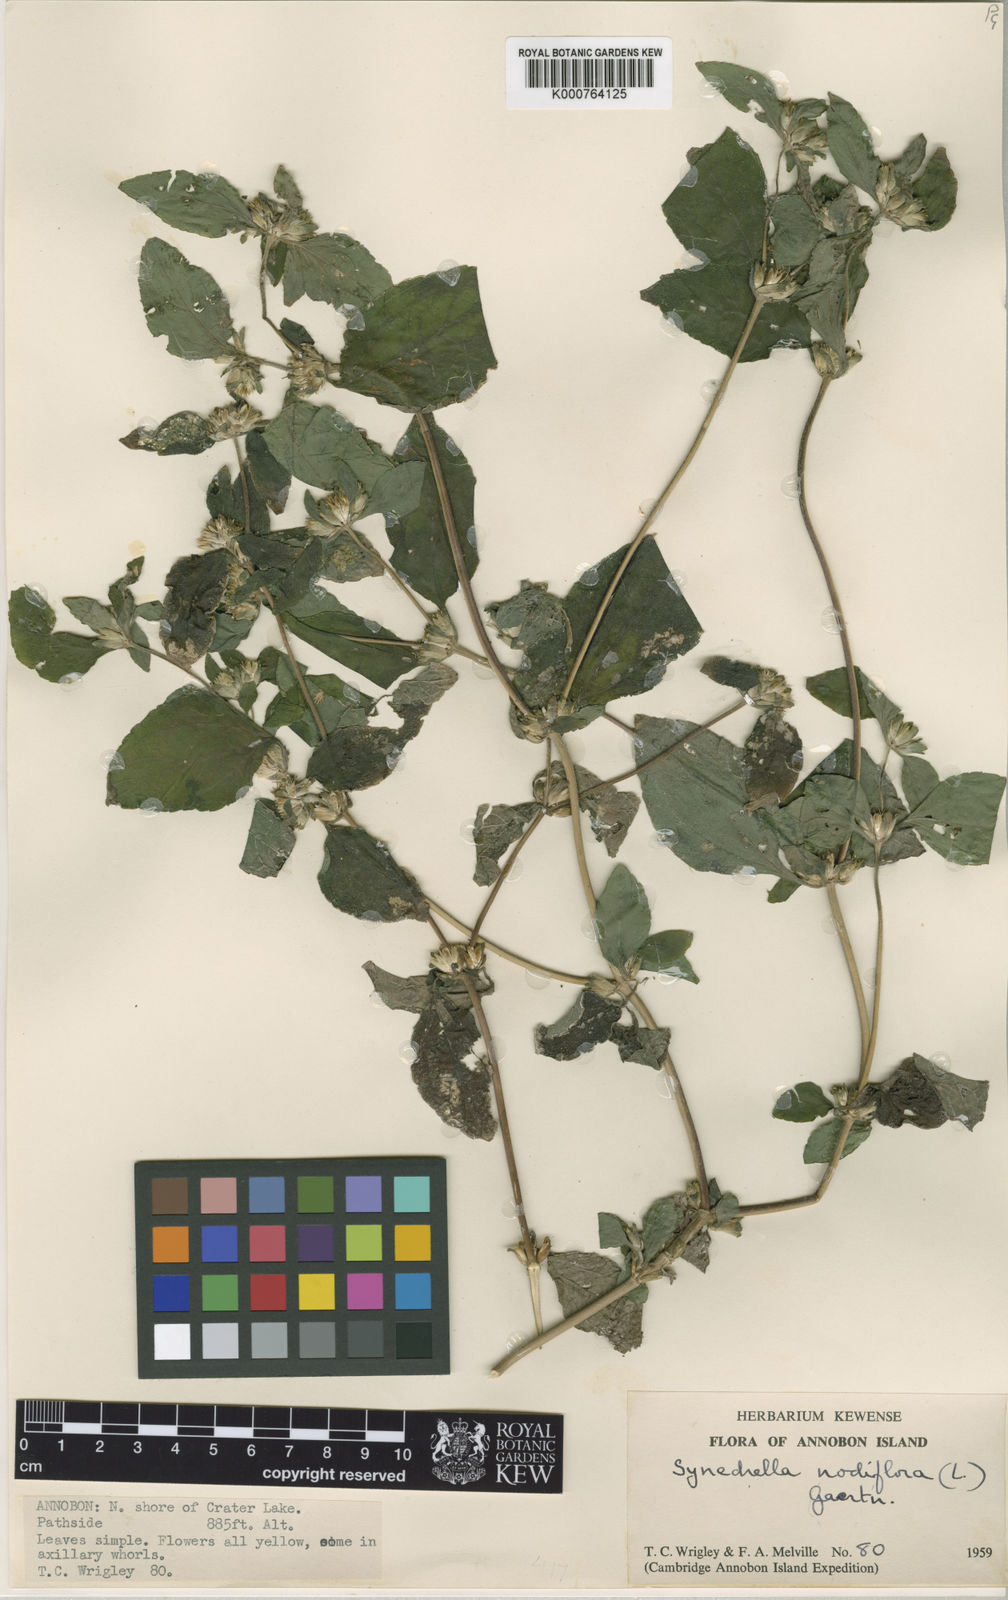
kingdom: Plantae
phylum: Tracheophyta
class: Magnoliopsida
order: Asterales
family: Asteraceae
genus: Synedrella
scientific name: Synedrella nodiflora
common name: Nodeweed
